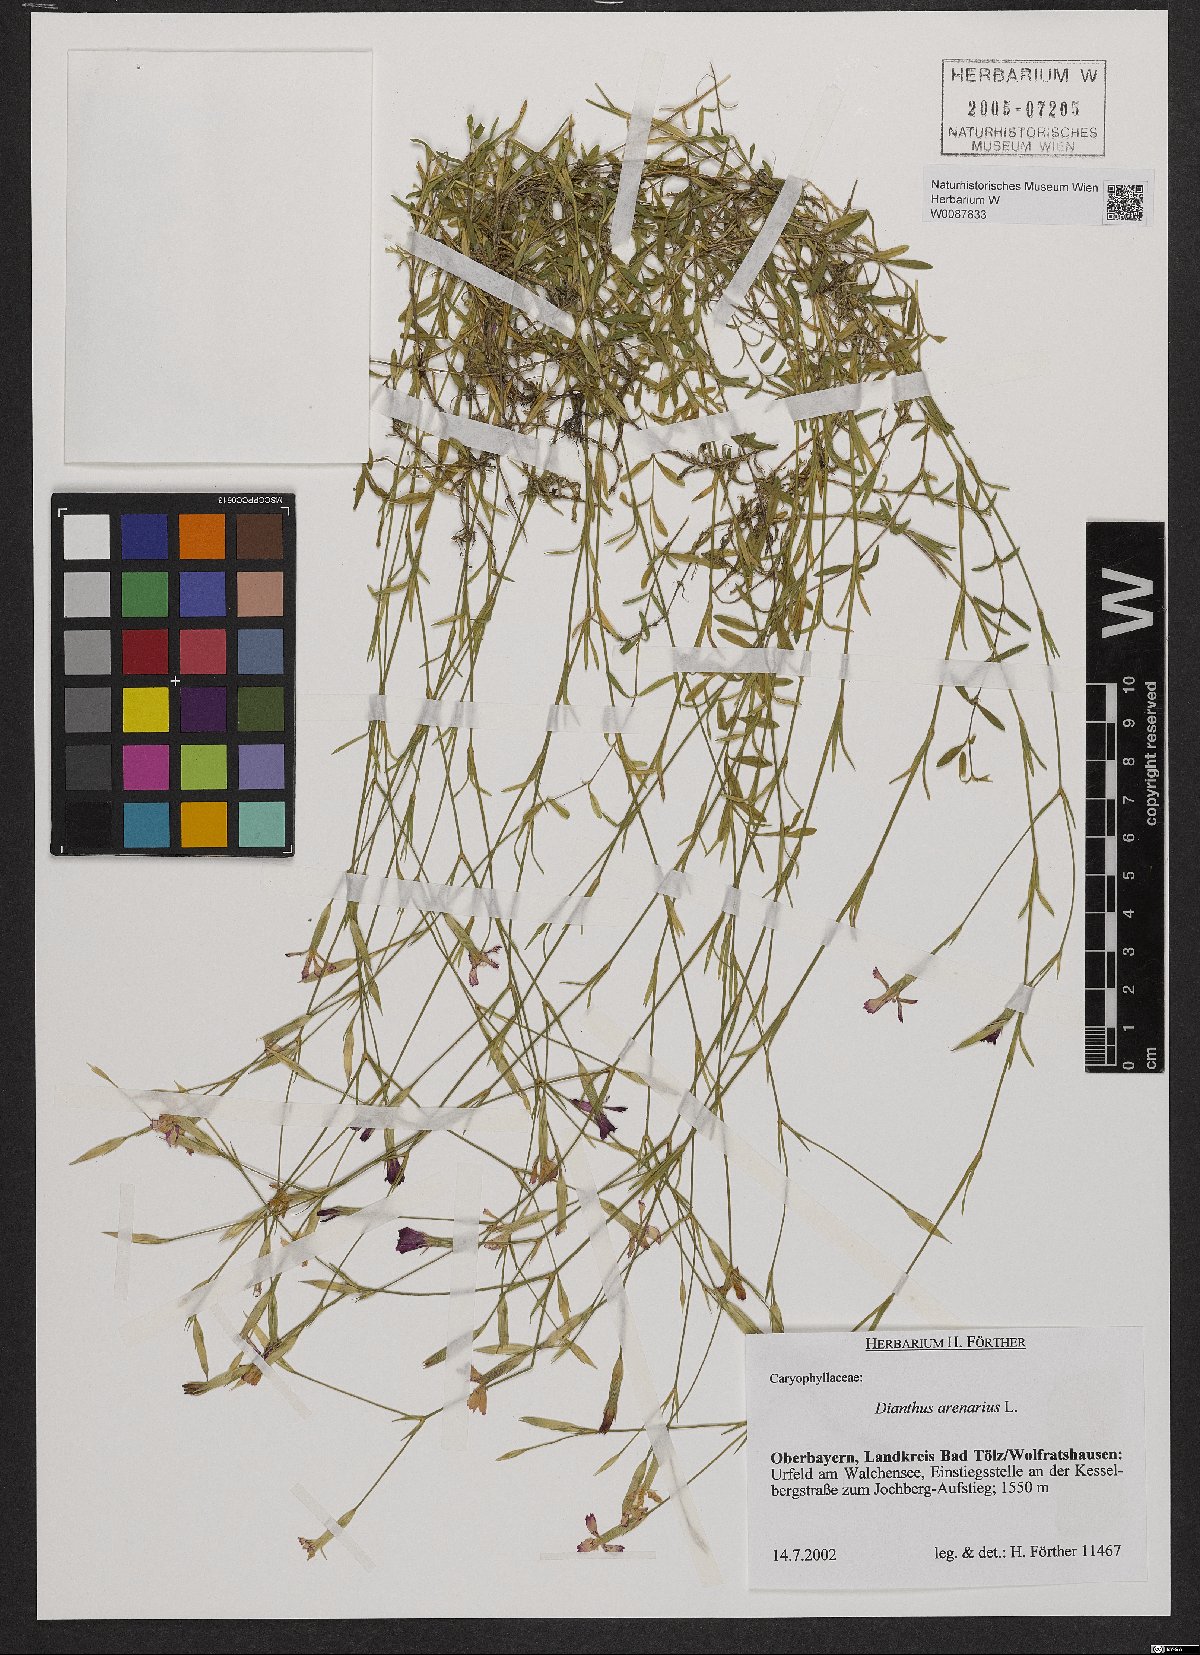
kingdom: Plantae
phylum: Tracheophyta
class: Magnoliopsida
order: Caryophyllales
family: Caryophyllaceae
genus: Dianthus
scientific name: Dianthus deltoides
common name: Maiden pink
